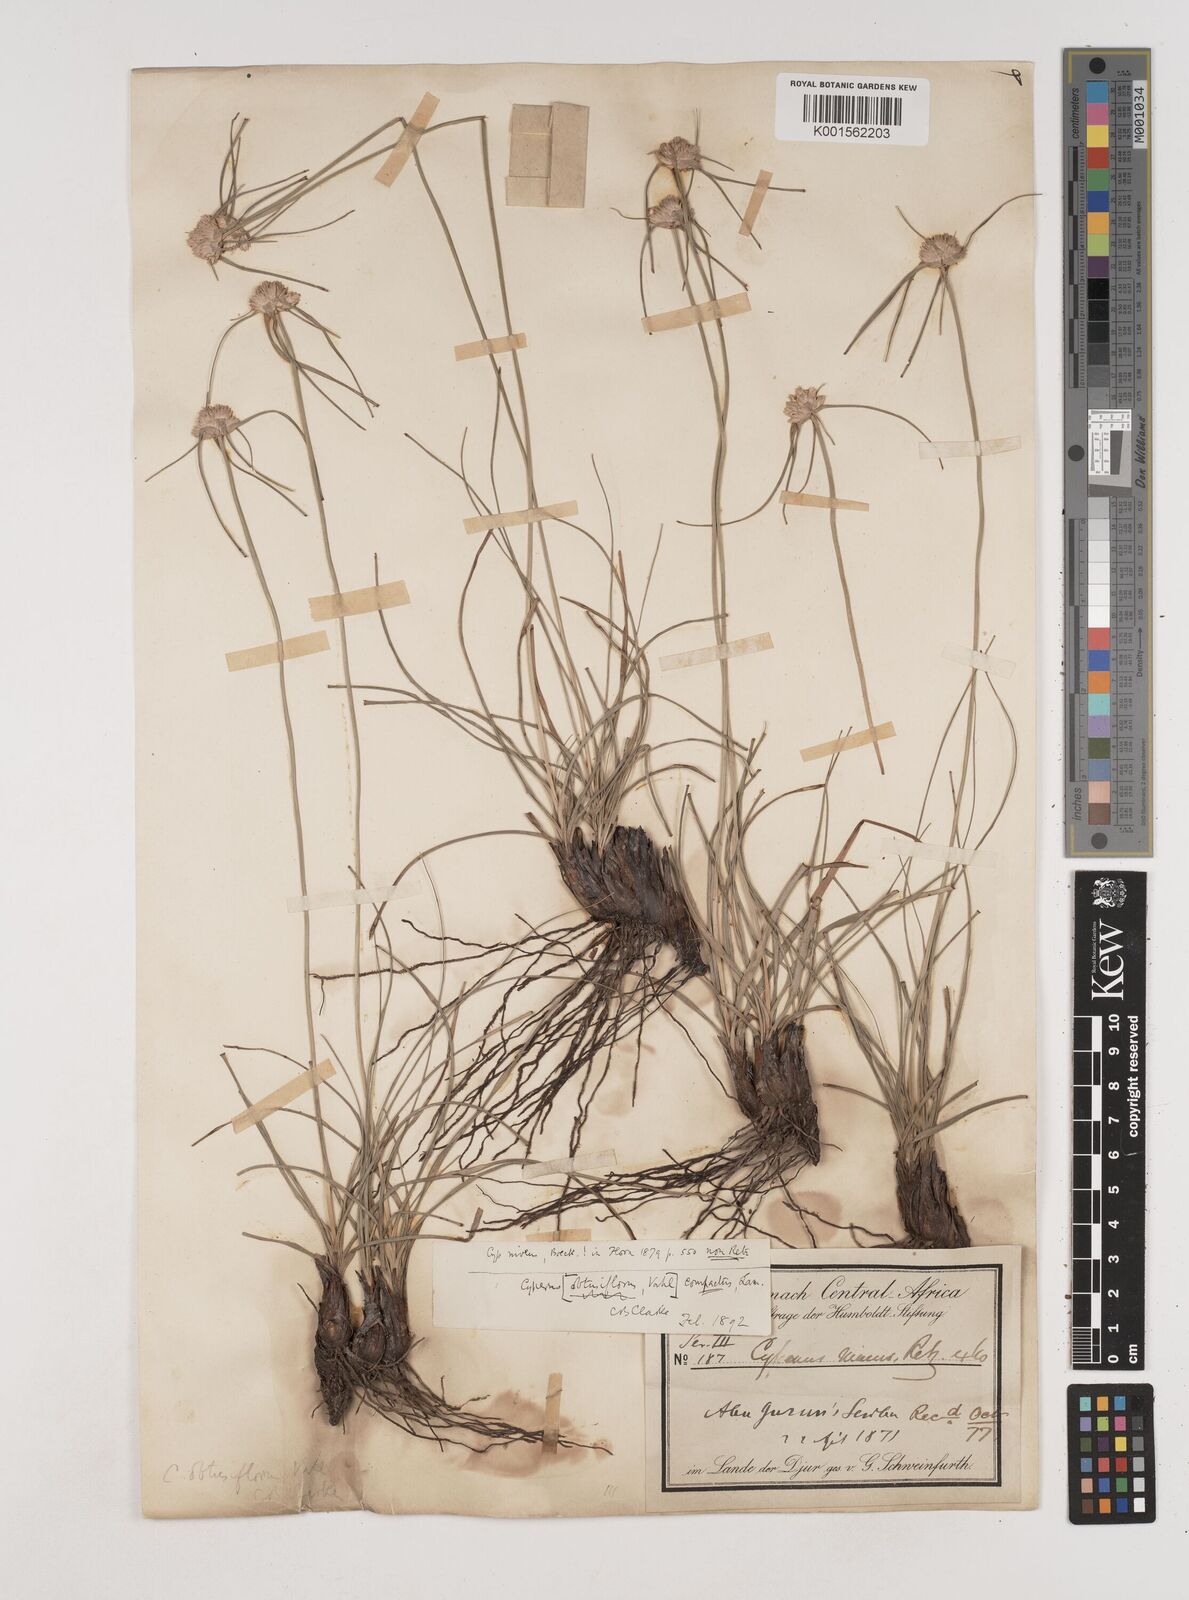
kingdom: Plantae
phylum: Tracheophyta
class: Liliopsida
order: Poales
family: Cyperaceae
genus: Cyperus
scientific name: Cyperus niveus
